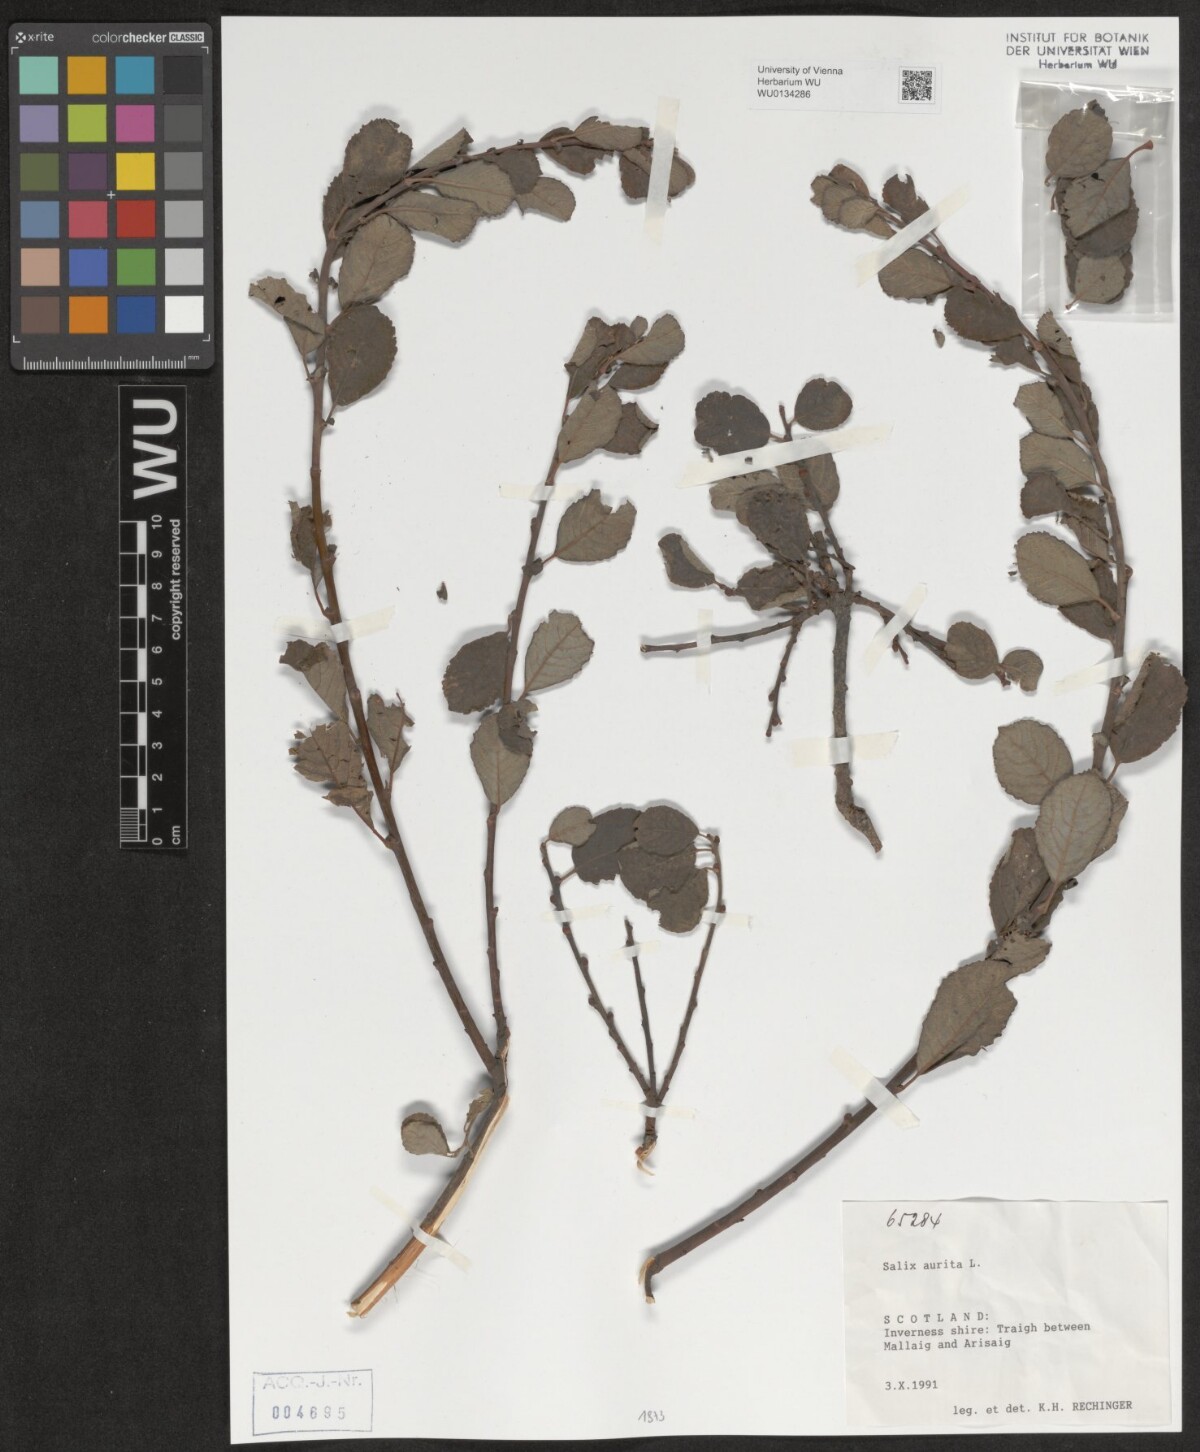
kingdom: Plantae
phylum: Tracheophyta
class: Magnoliopsida
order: Malpighiales
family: Salicaceae
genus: Salix
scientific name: Salix aurita
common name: Eared willow
